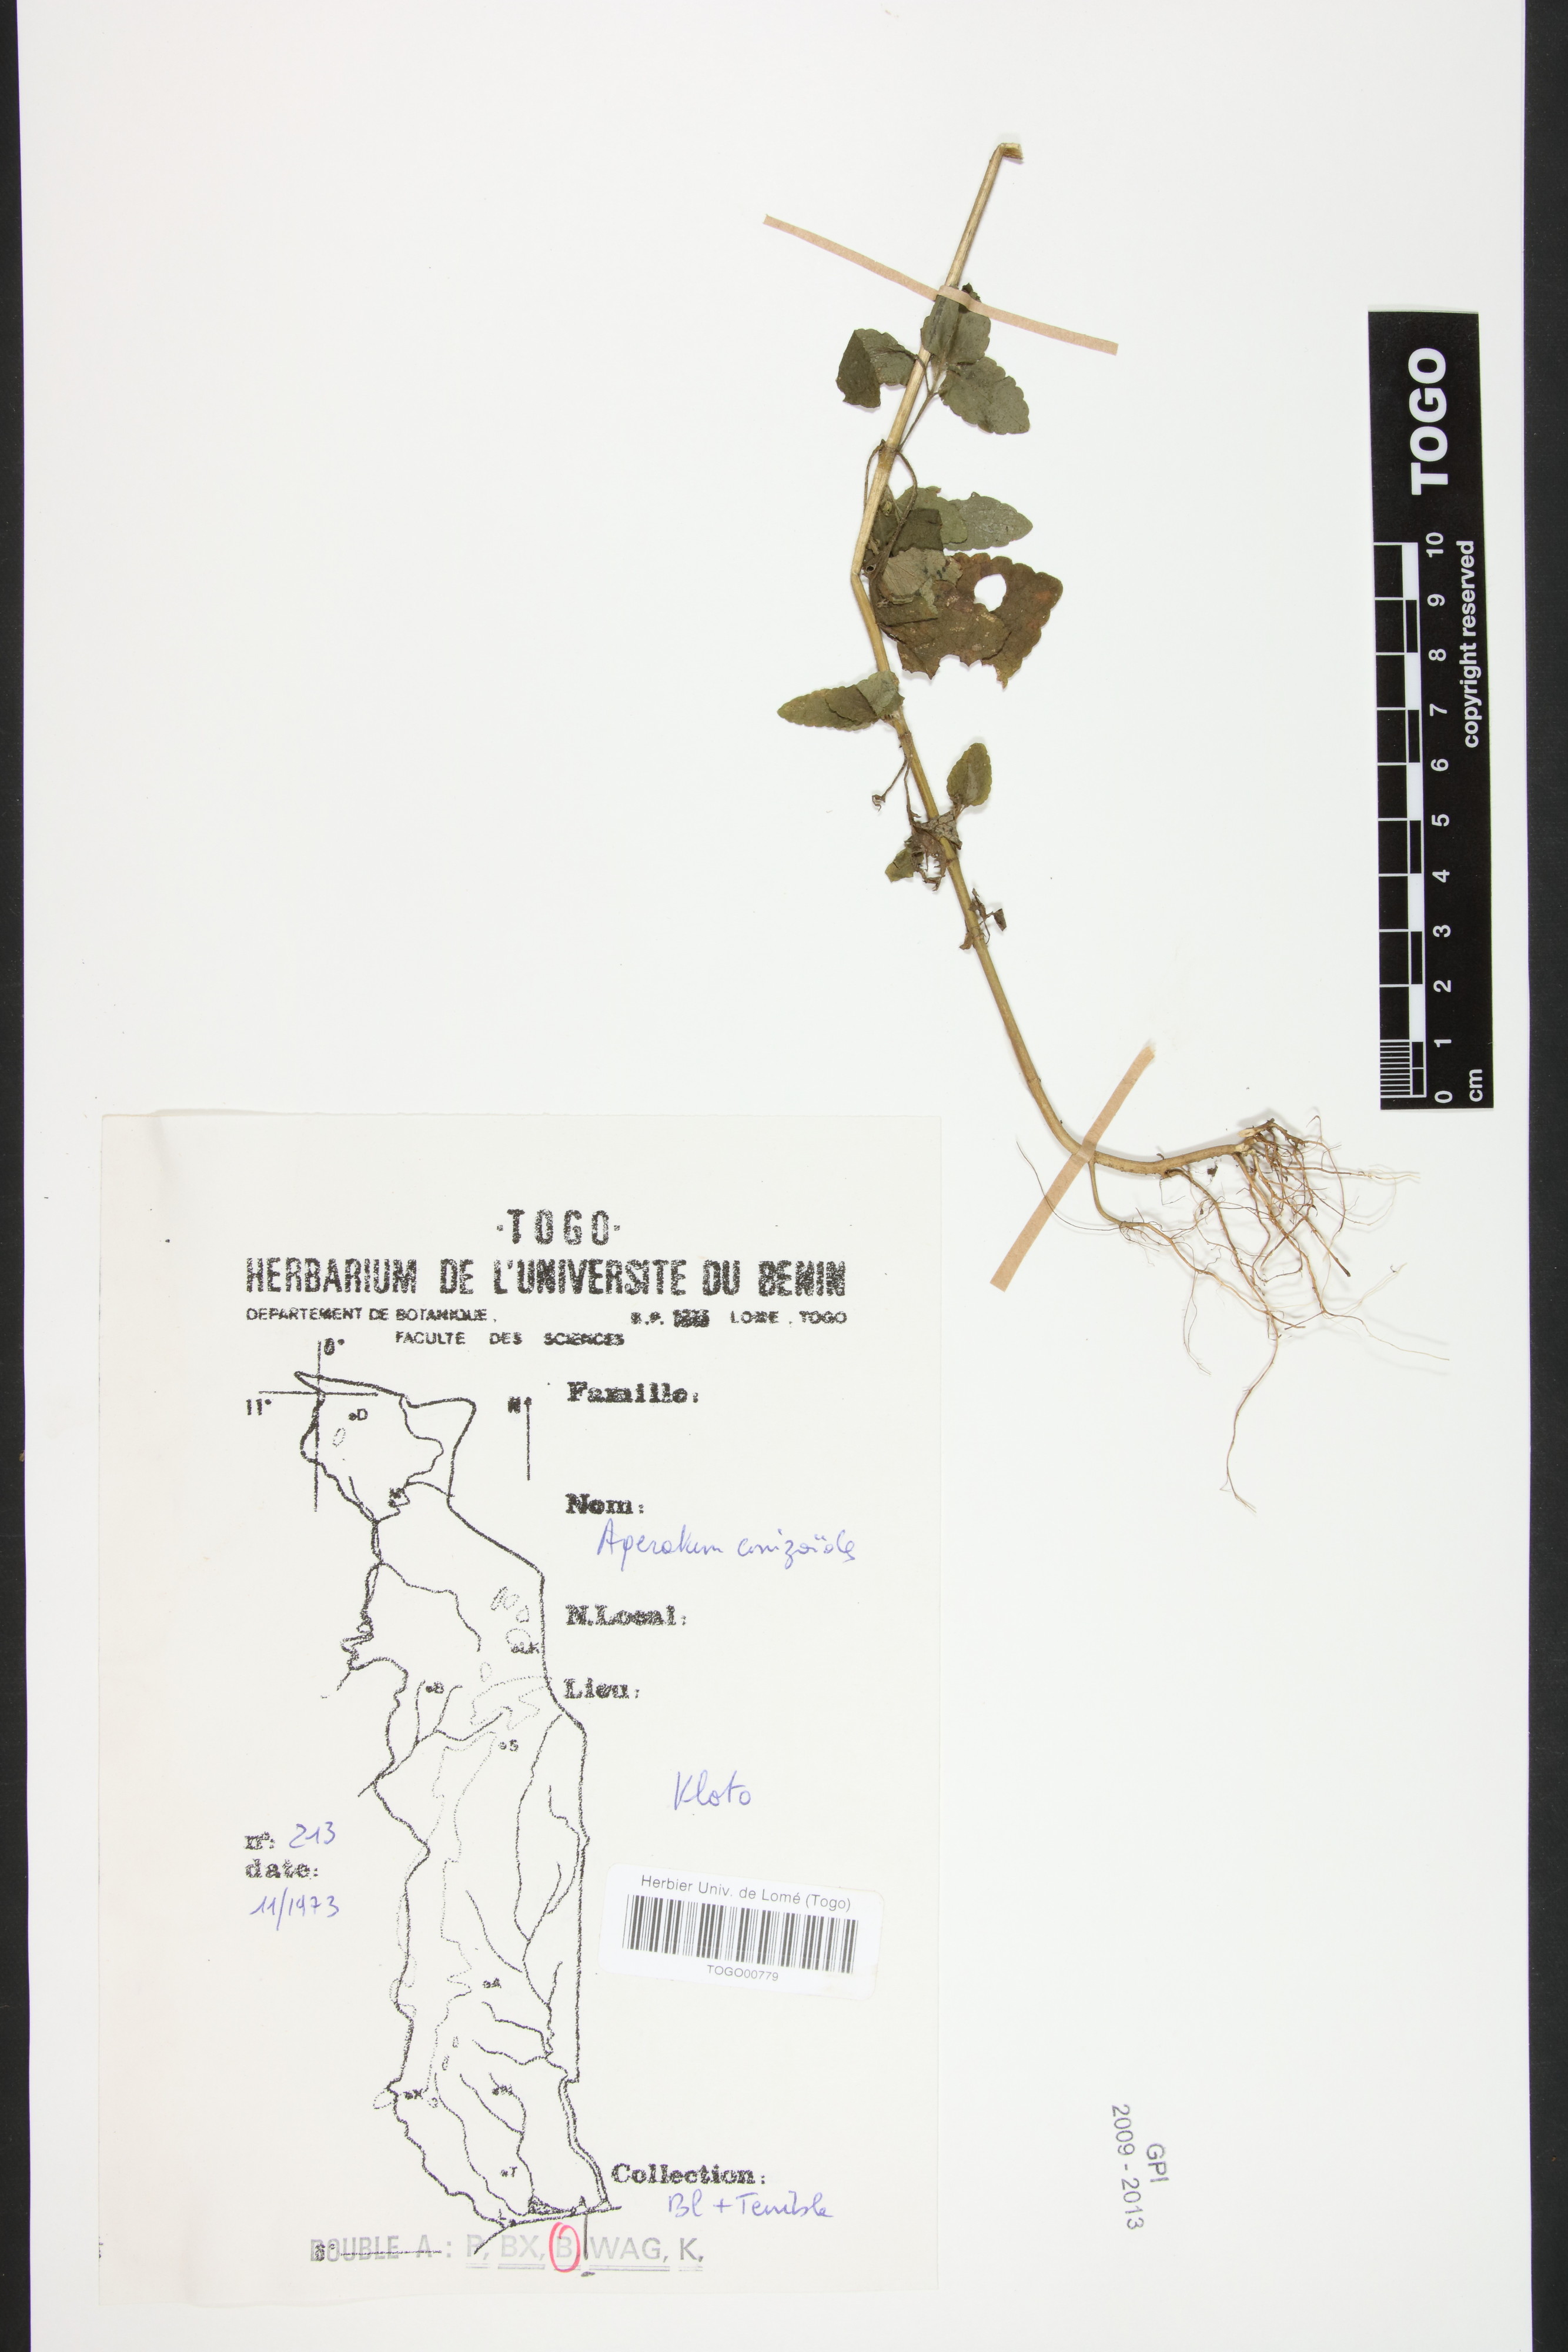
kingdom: Plantae
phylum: Tracheophyta
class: Magnoliopsida
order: Asterales
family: Asteraceae
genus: Ageratum
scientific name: Ageratum conyzoides
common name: Tropical whiteweed
